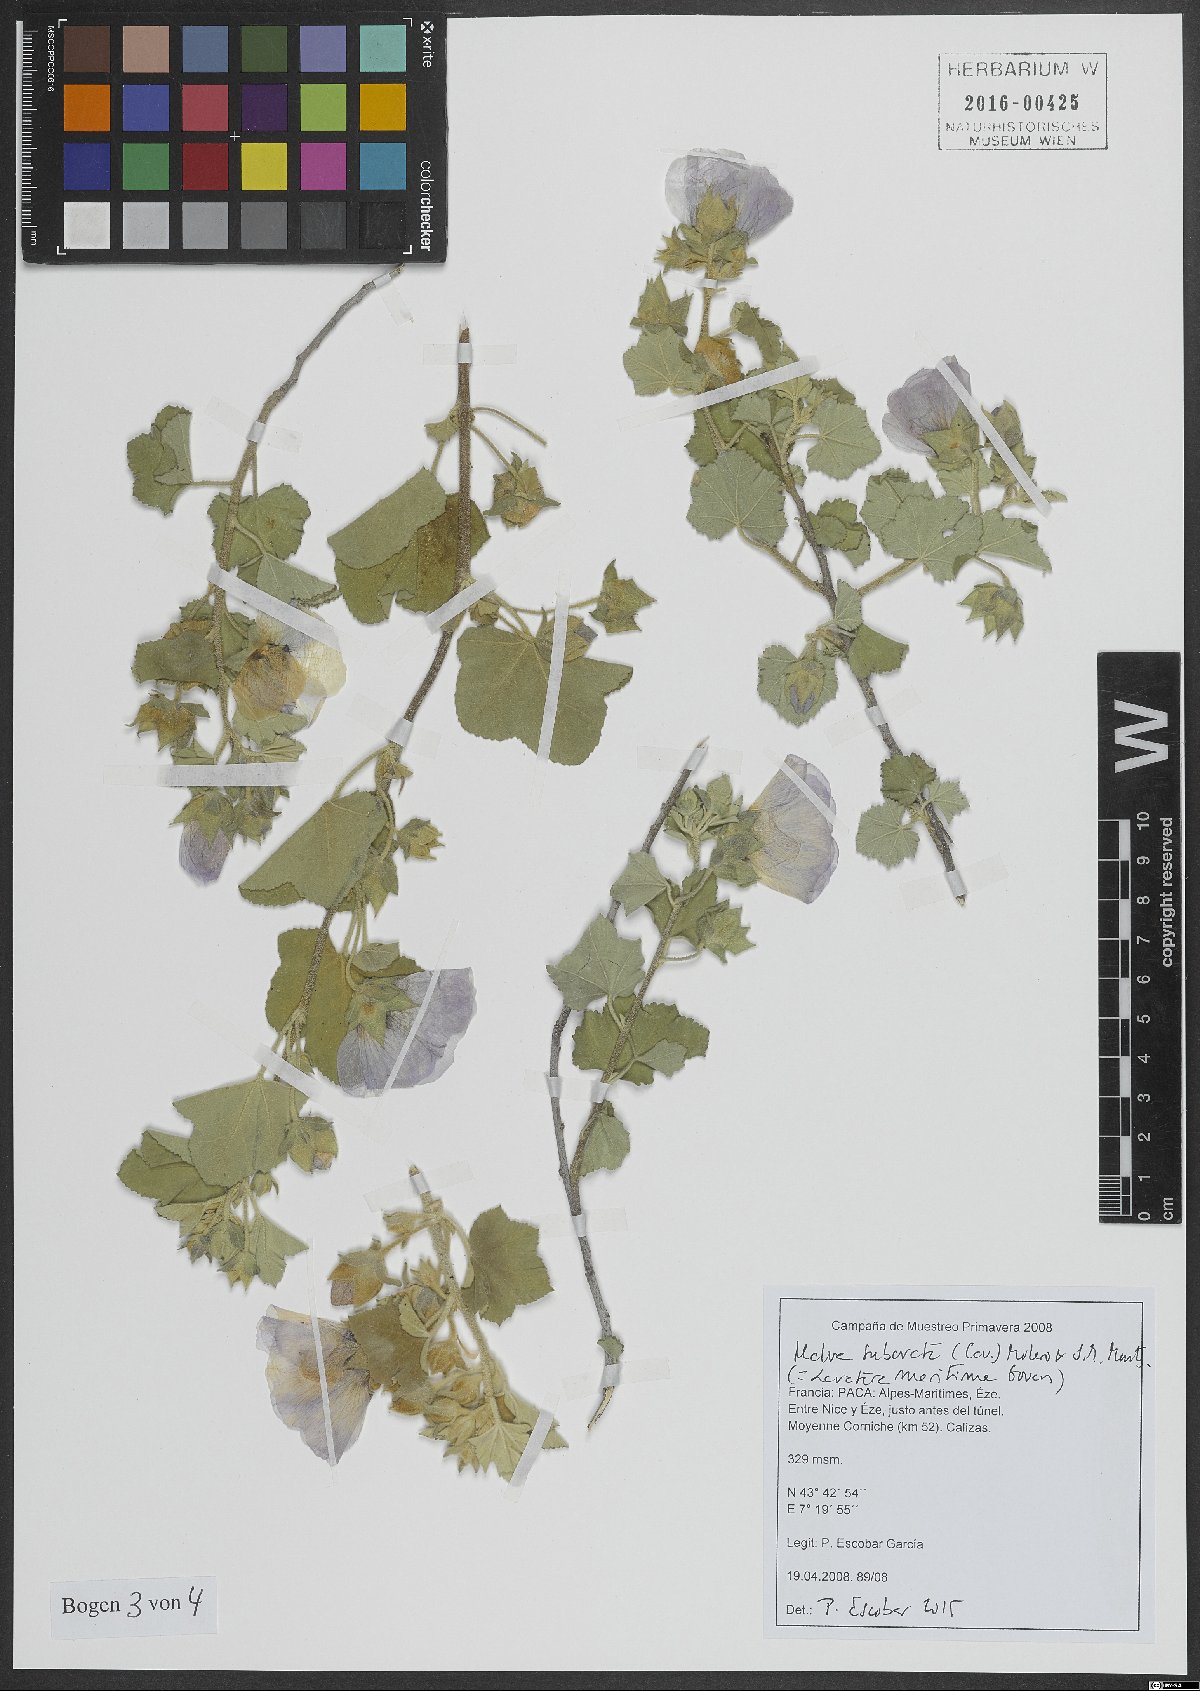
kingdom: Plantae
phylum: Tracheophyta
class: Magnoliopsida
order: Malvales
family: Malvaceae
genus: Malva
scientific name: Malva subovata
